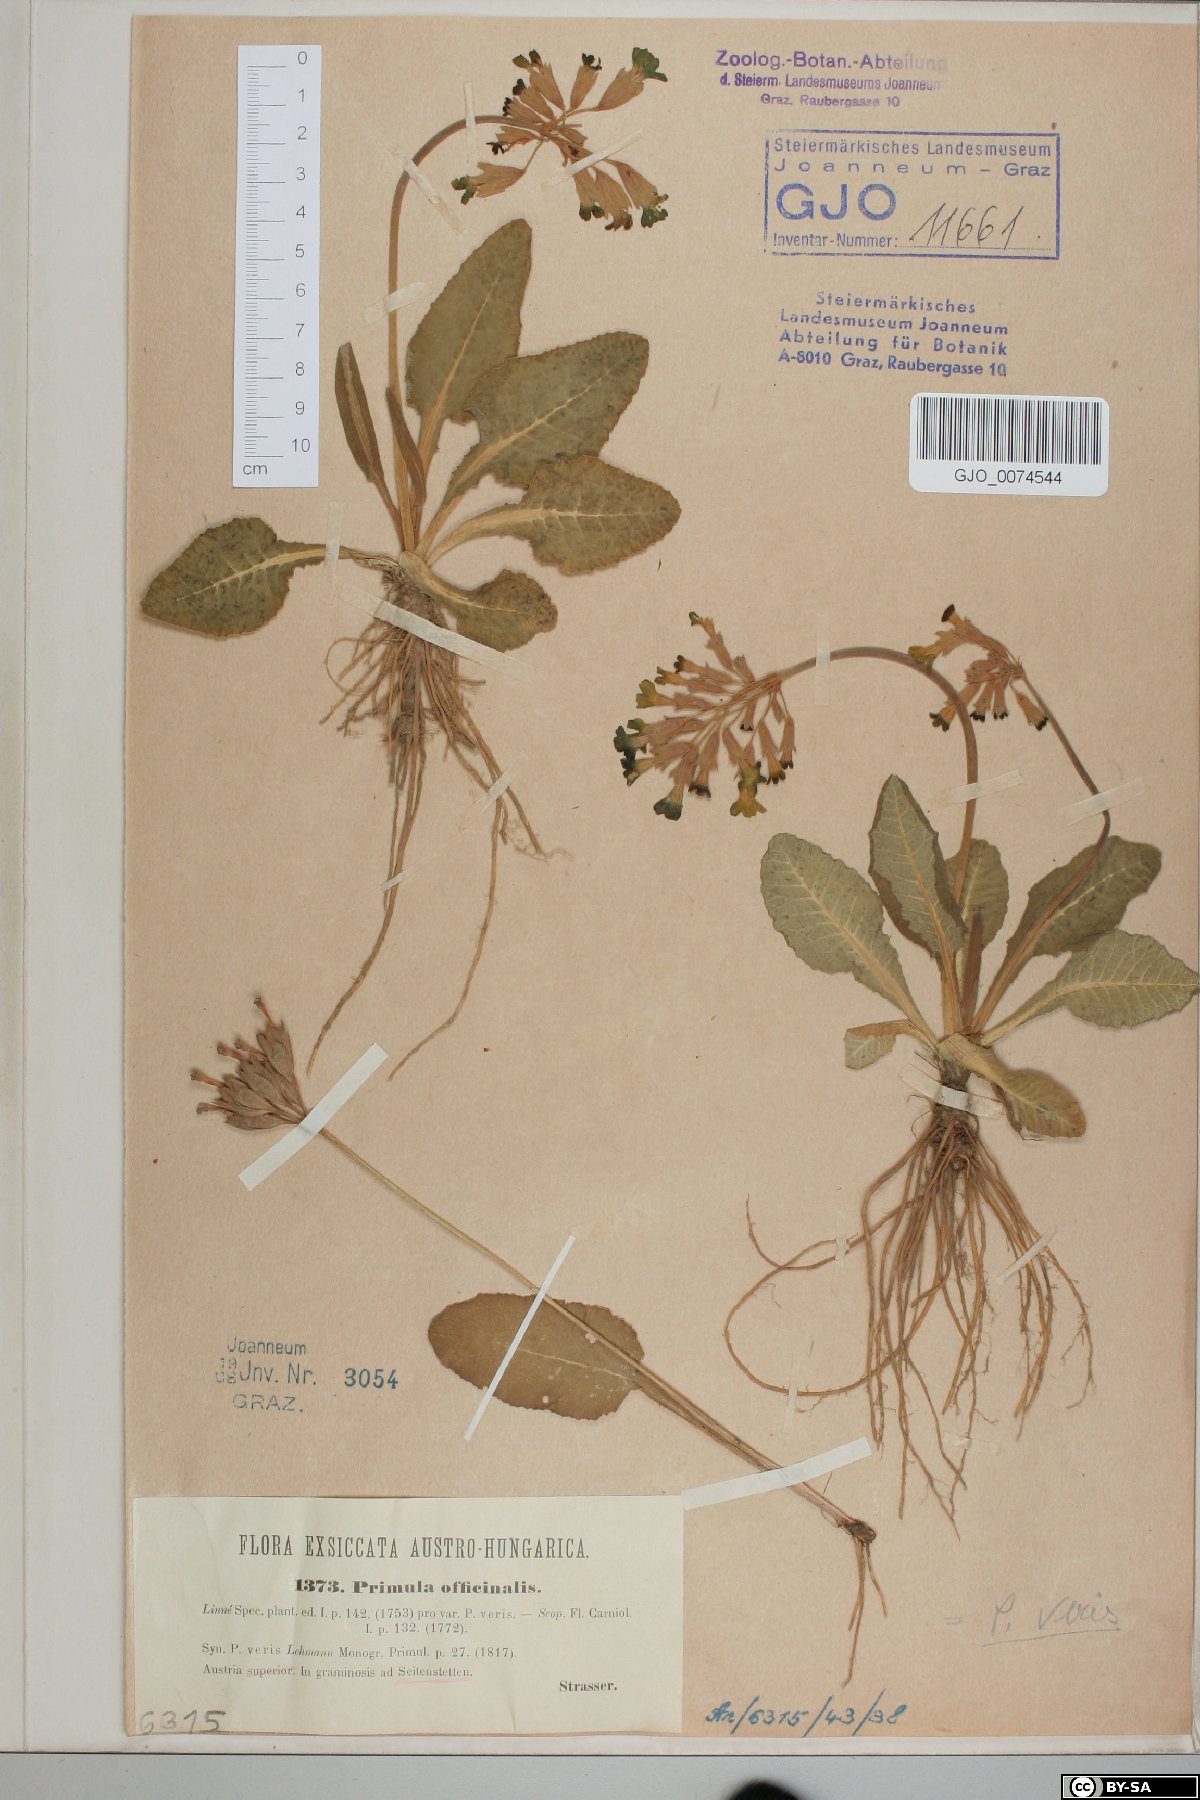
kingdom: Plantae
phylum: Tracheophyta
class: Magnoliopsida
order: Ericales
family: Primulaceae
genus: Primula
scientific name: Primula veris
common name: Cowslip
